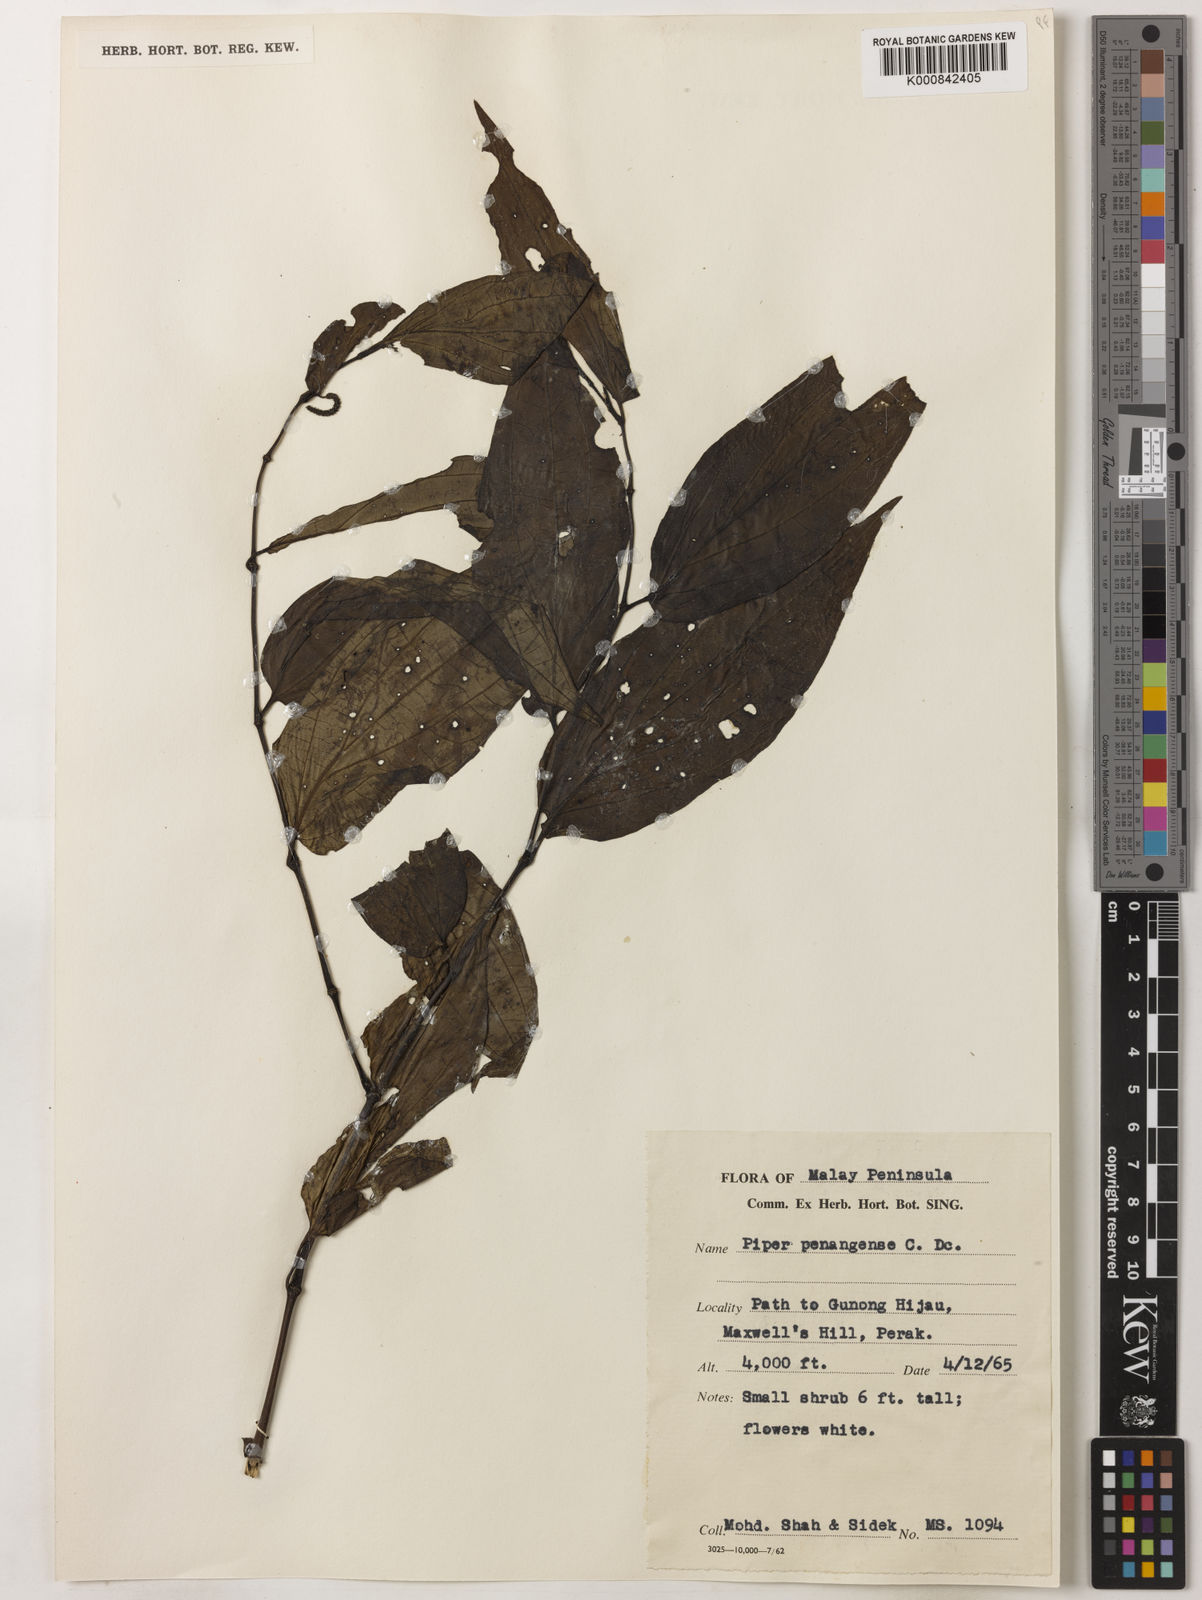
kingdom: Plantae
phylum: Tracheophyta
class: Magnoliopsida
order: Piperales
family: Piperaceae
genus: Piper
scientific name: Piper penangense
